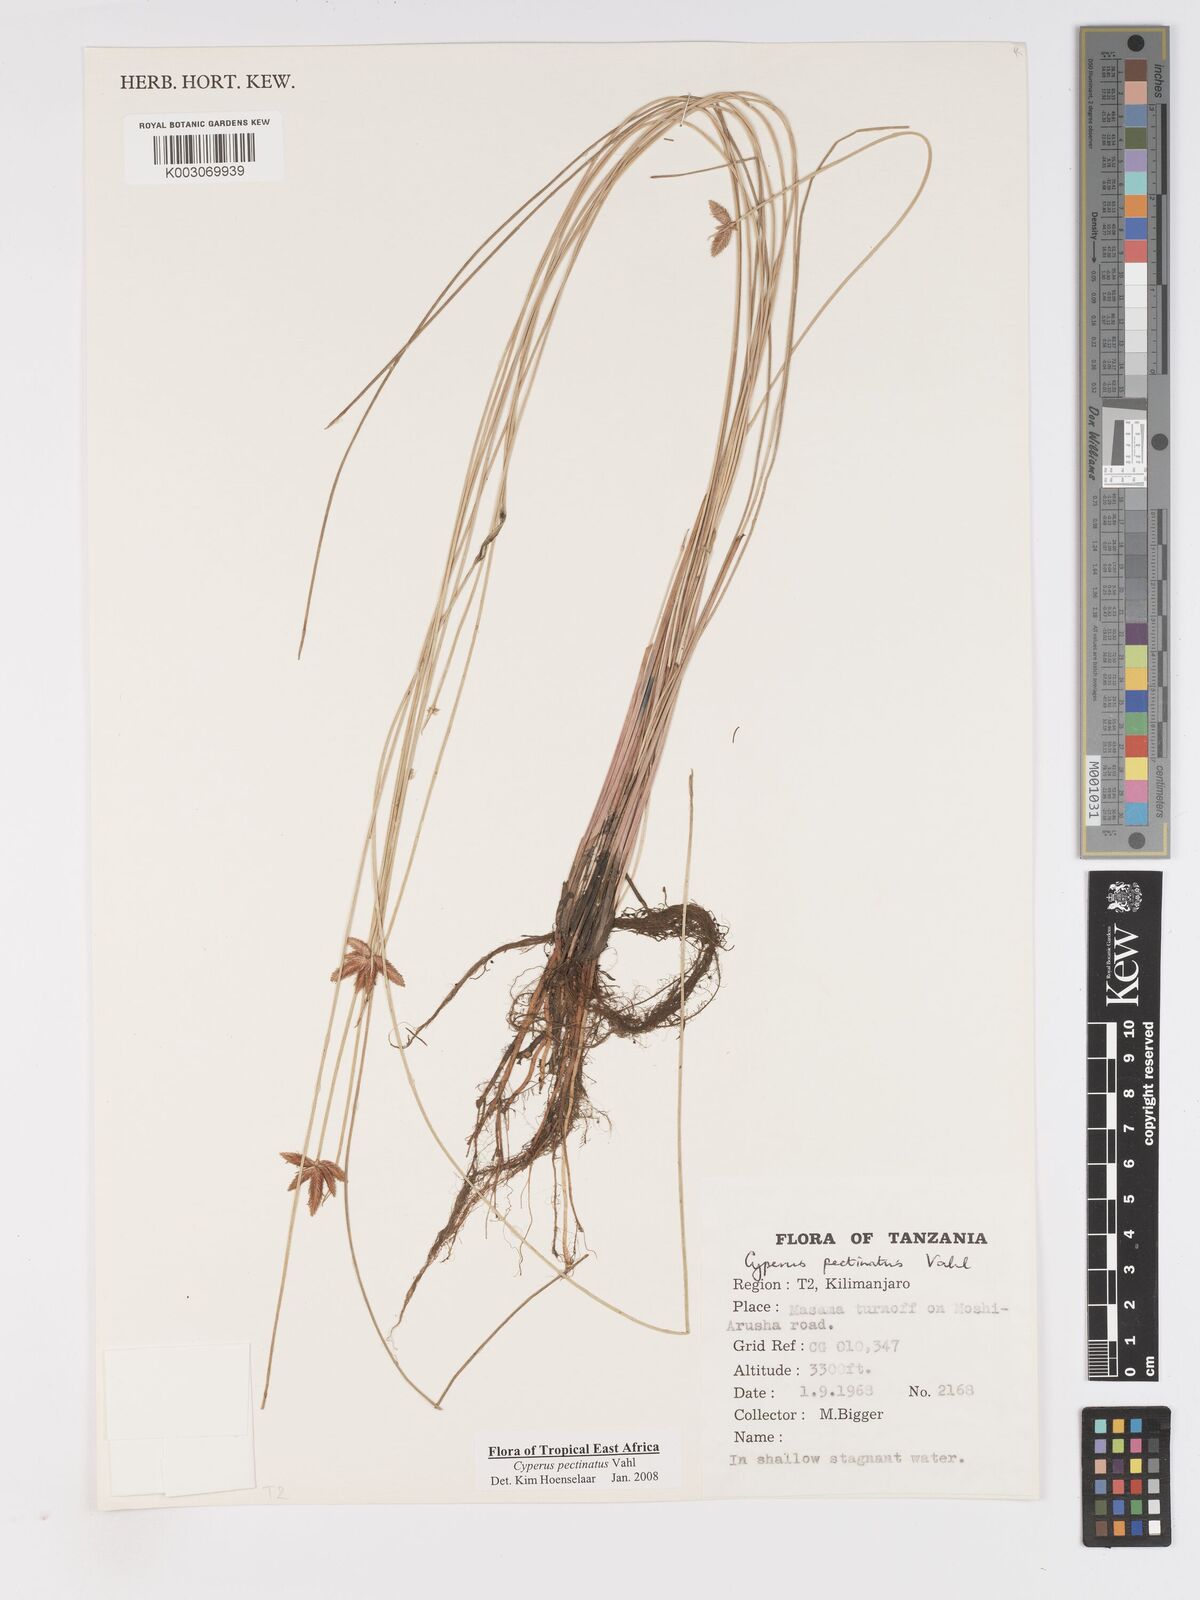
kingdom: Plantae
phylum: Tracheophyta
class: Liliopsida
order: Poales
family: Cyperaceae
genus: Cyperus
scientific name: Cyperus pectinatus
